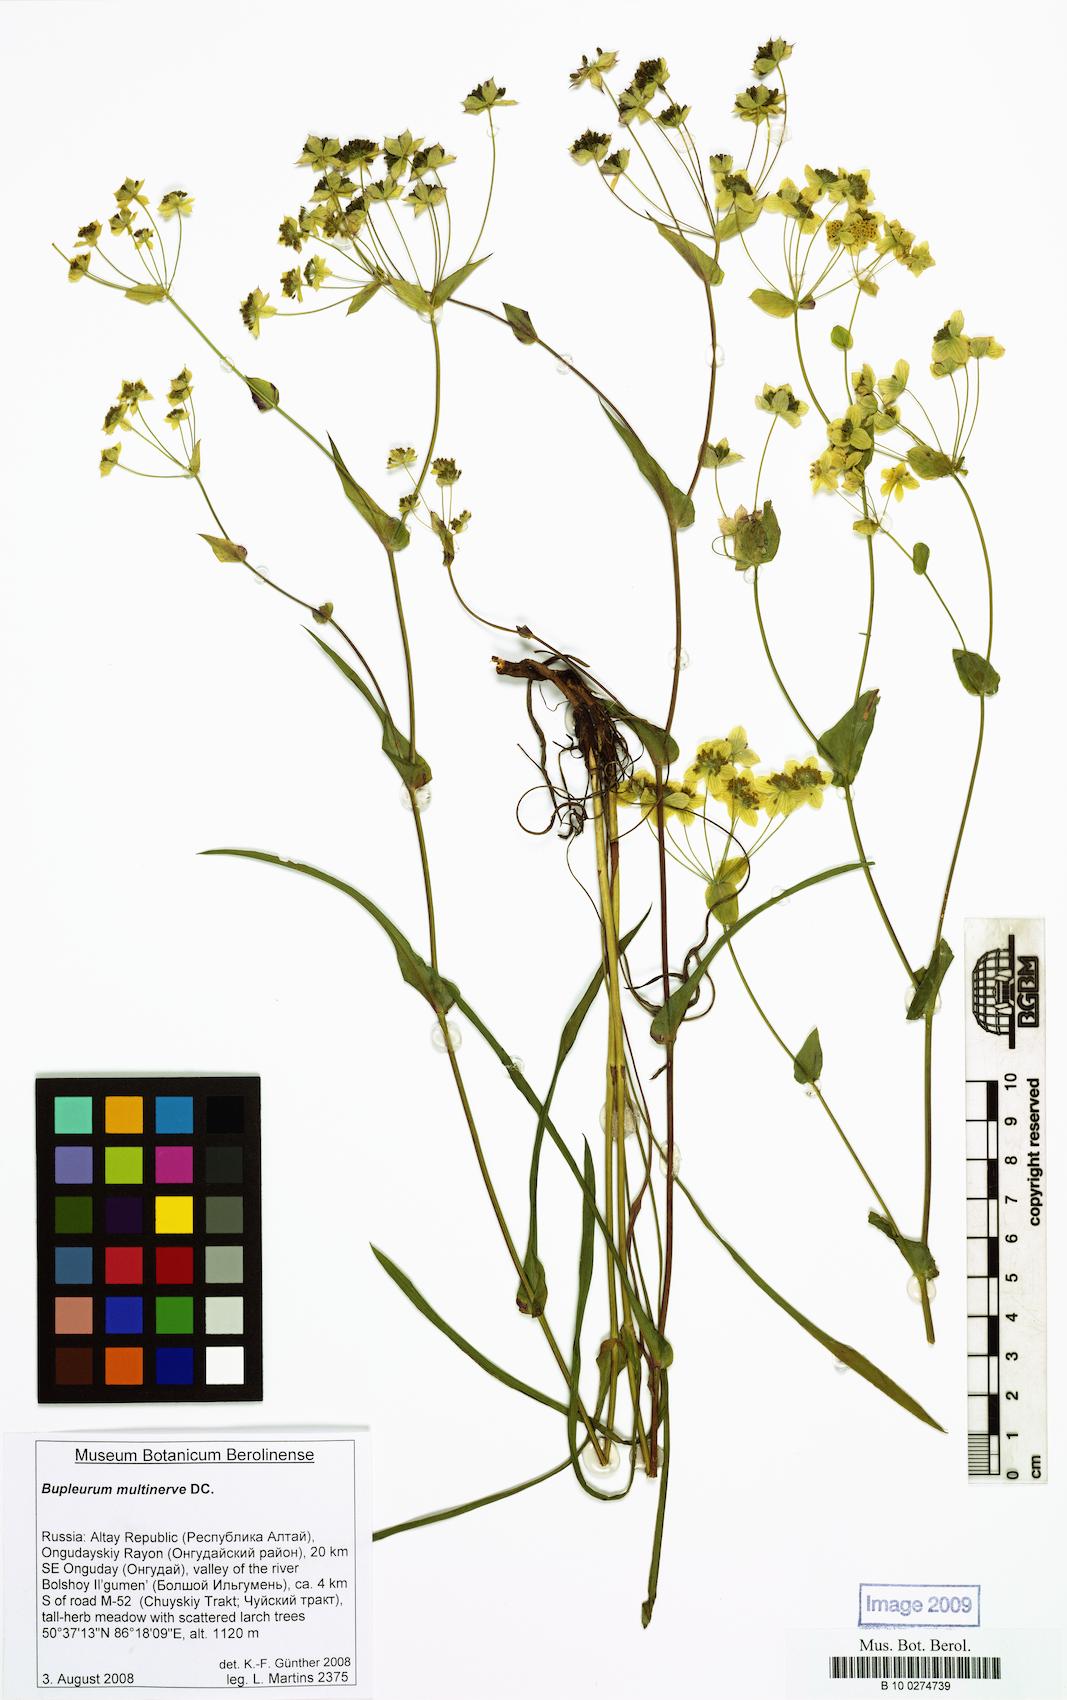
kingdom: Plantae
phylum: Tracheophyta
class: Magnoliopsida
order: Apiales
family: Apiaceae
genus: Bupleurum
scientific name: Bupleurum multinerve
